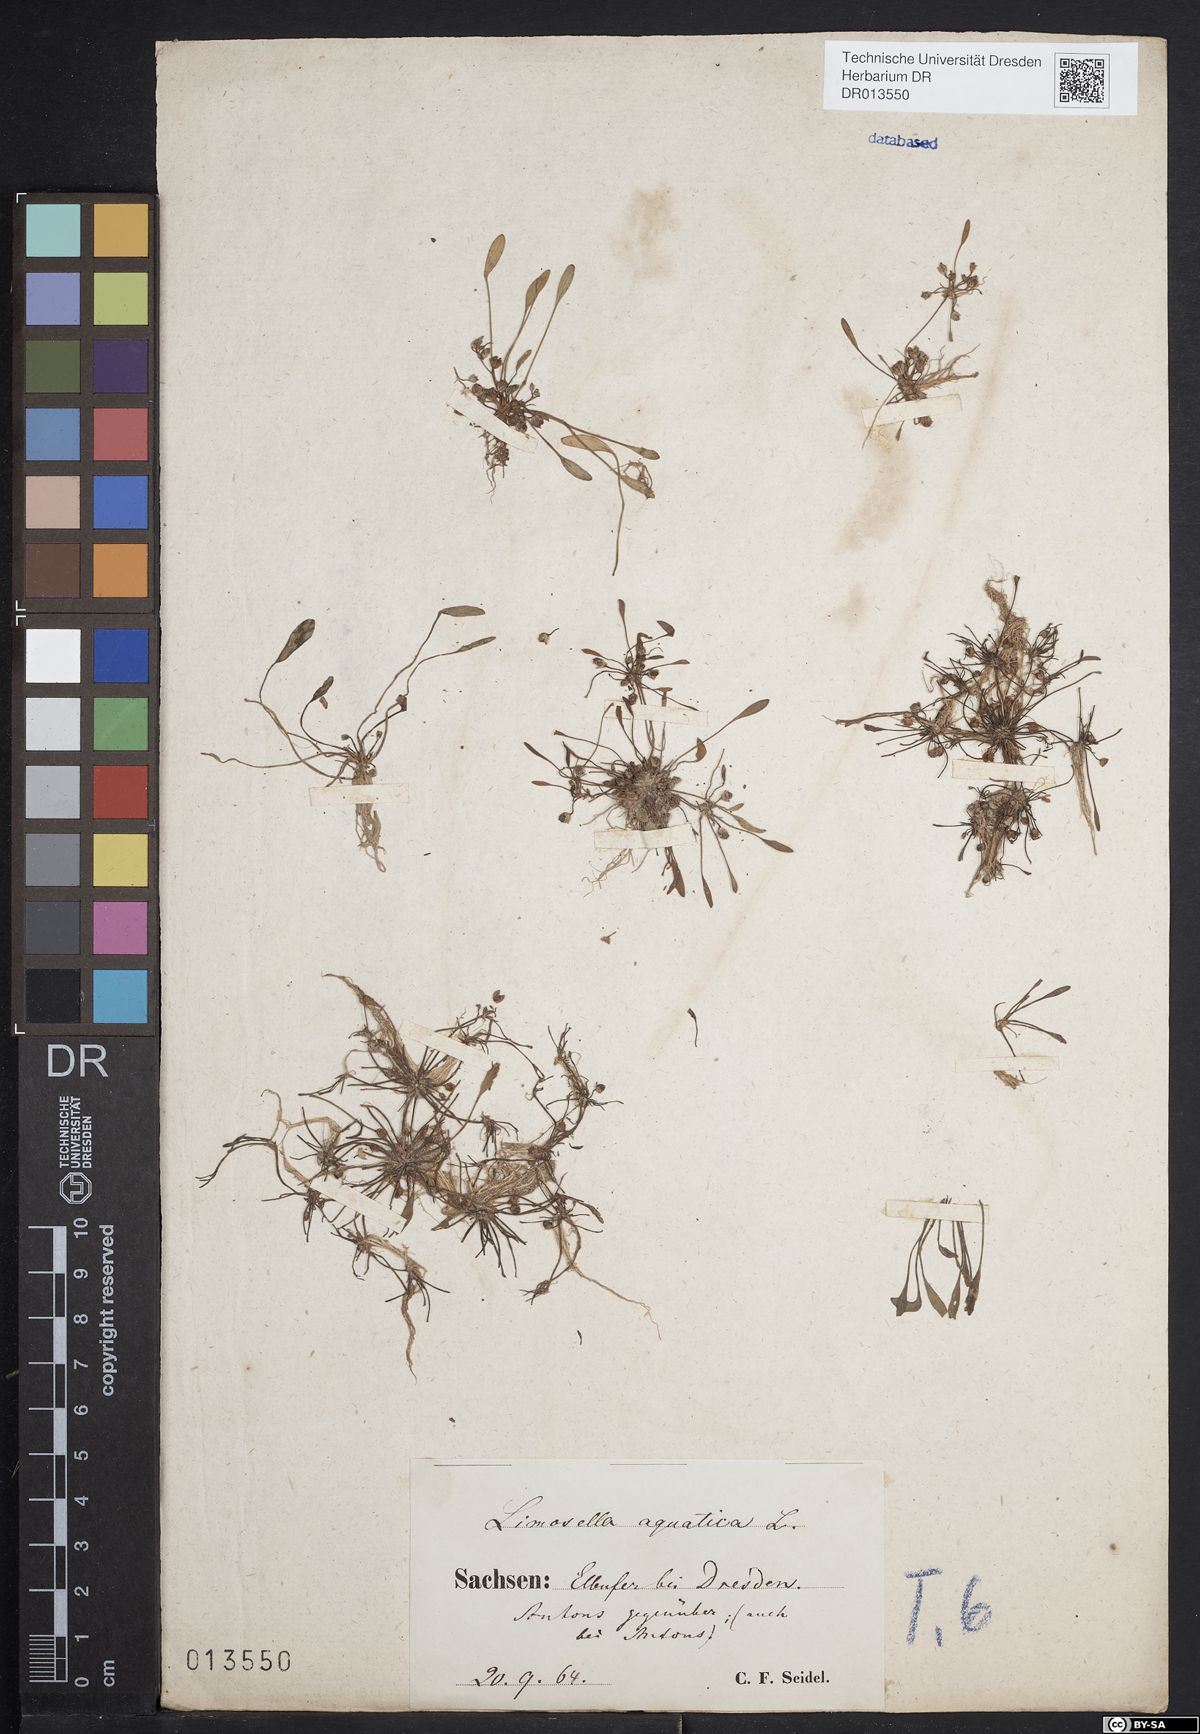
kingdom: Plantae
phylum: Tracheophyta
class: Magnoliopsida
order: Lamiales
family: Scrophulariaceae
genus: Limosella
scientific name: Limosella aquatica
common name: Mudwort
